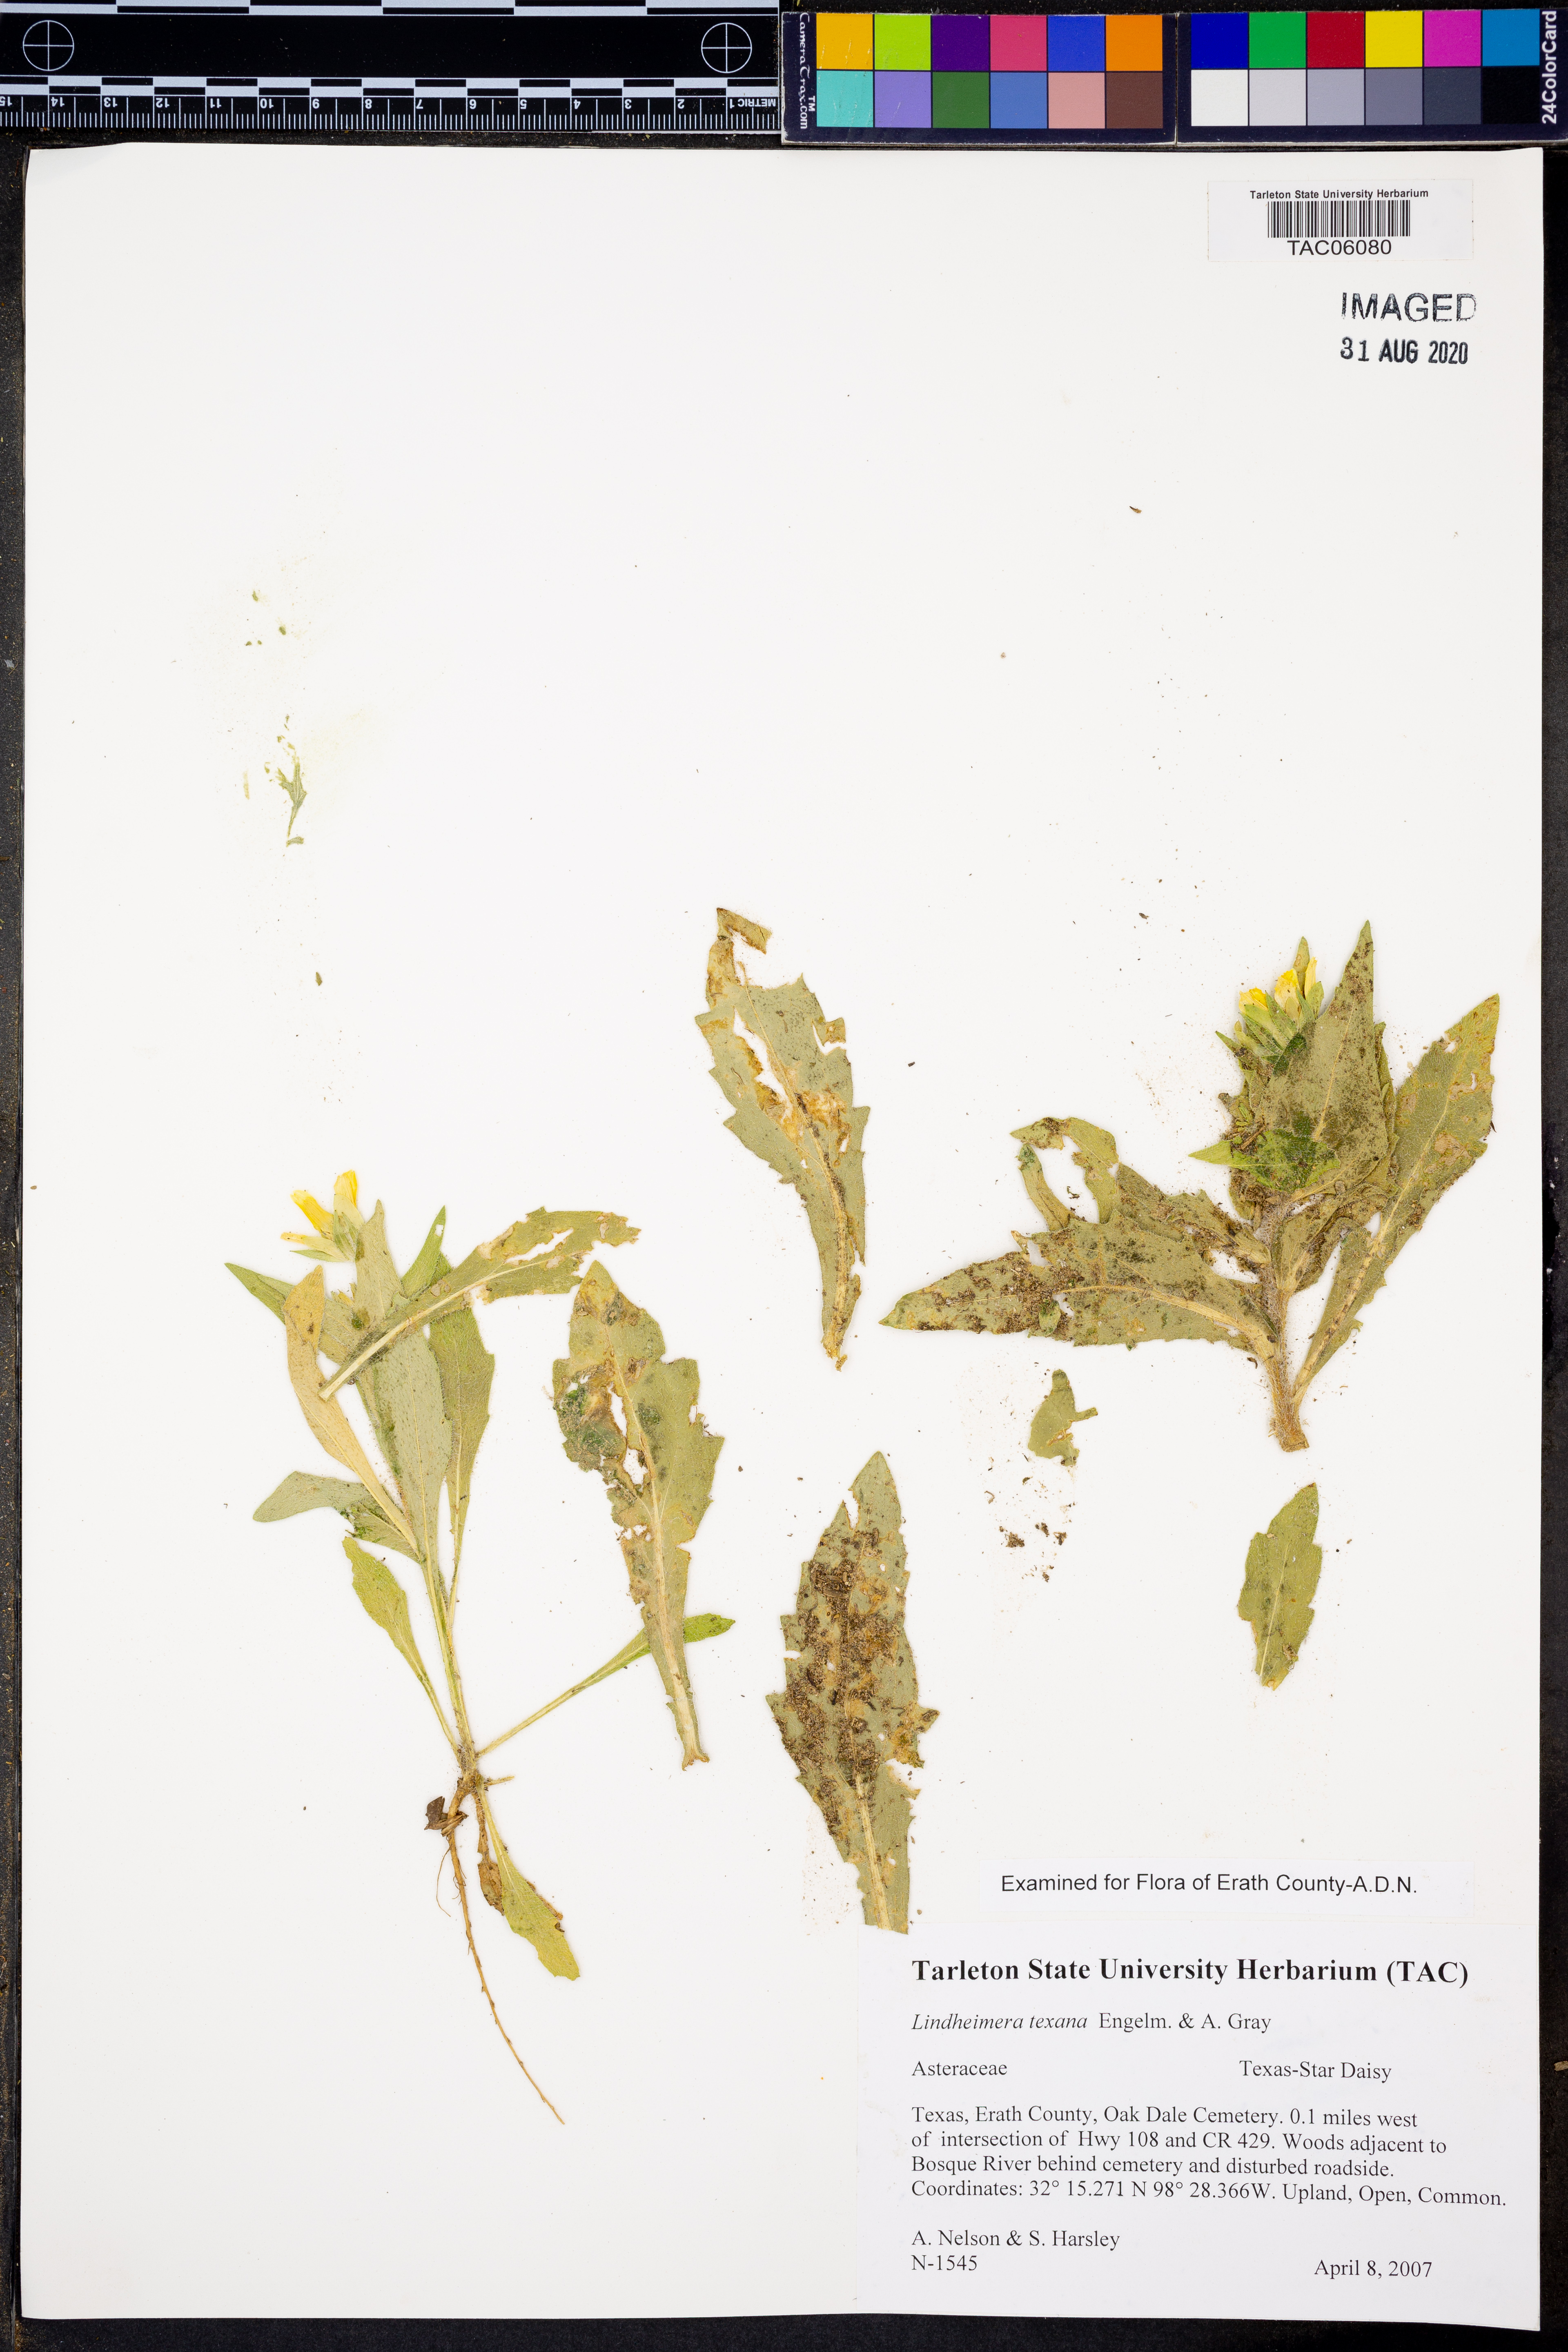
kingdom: Plantae
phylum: Tracheophyta
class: Magnoliopsida
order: Asterales
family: Asteraceae
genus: Lindheimera
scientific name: Lindheimera texana
